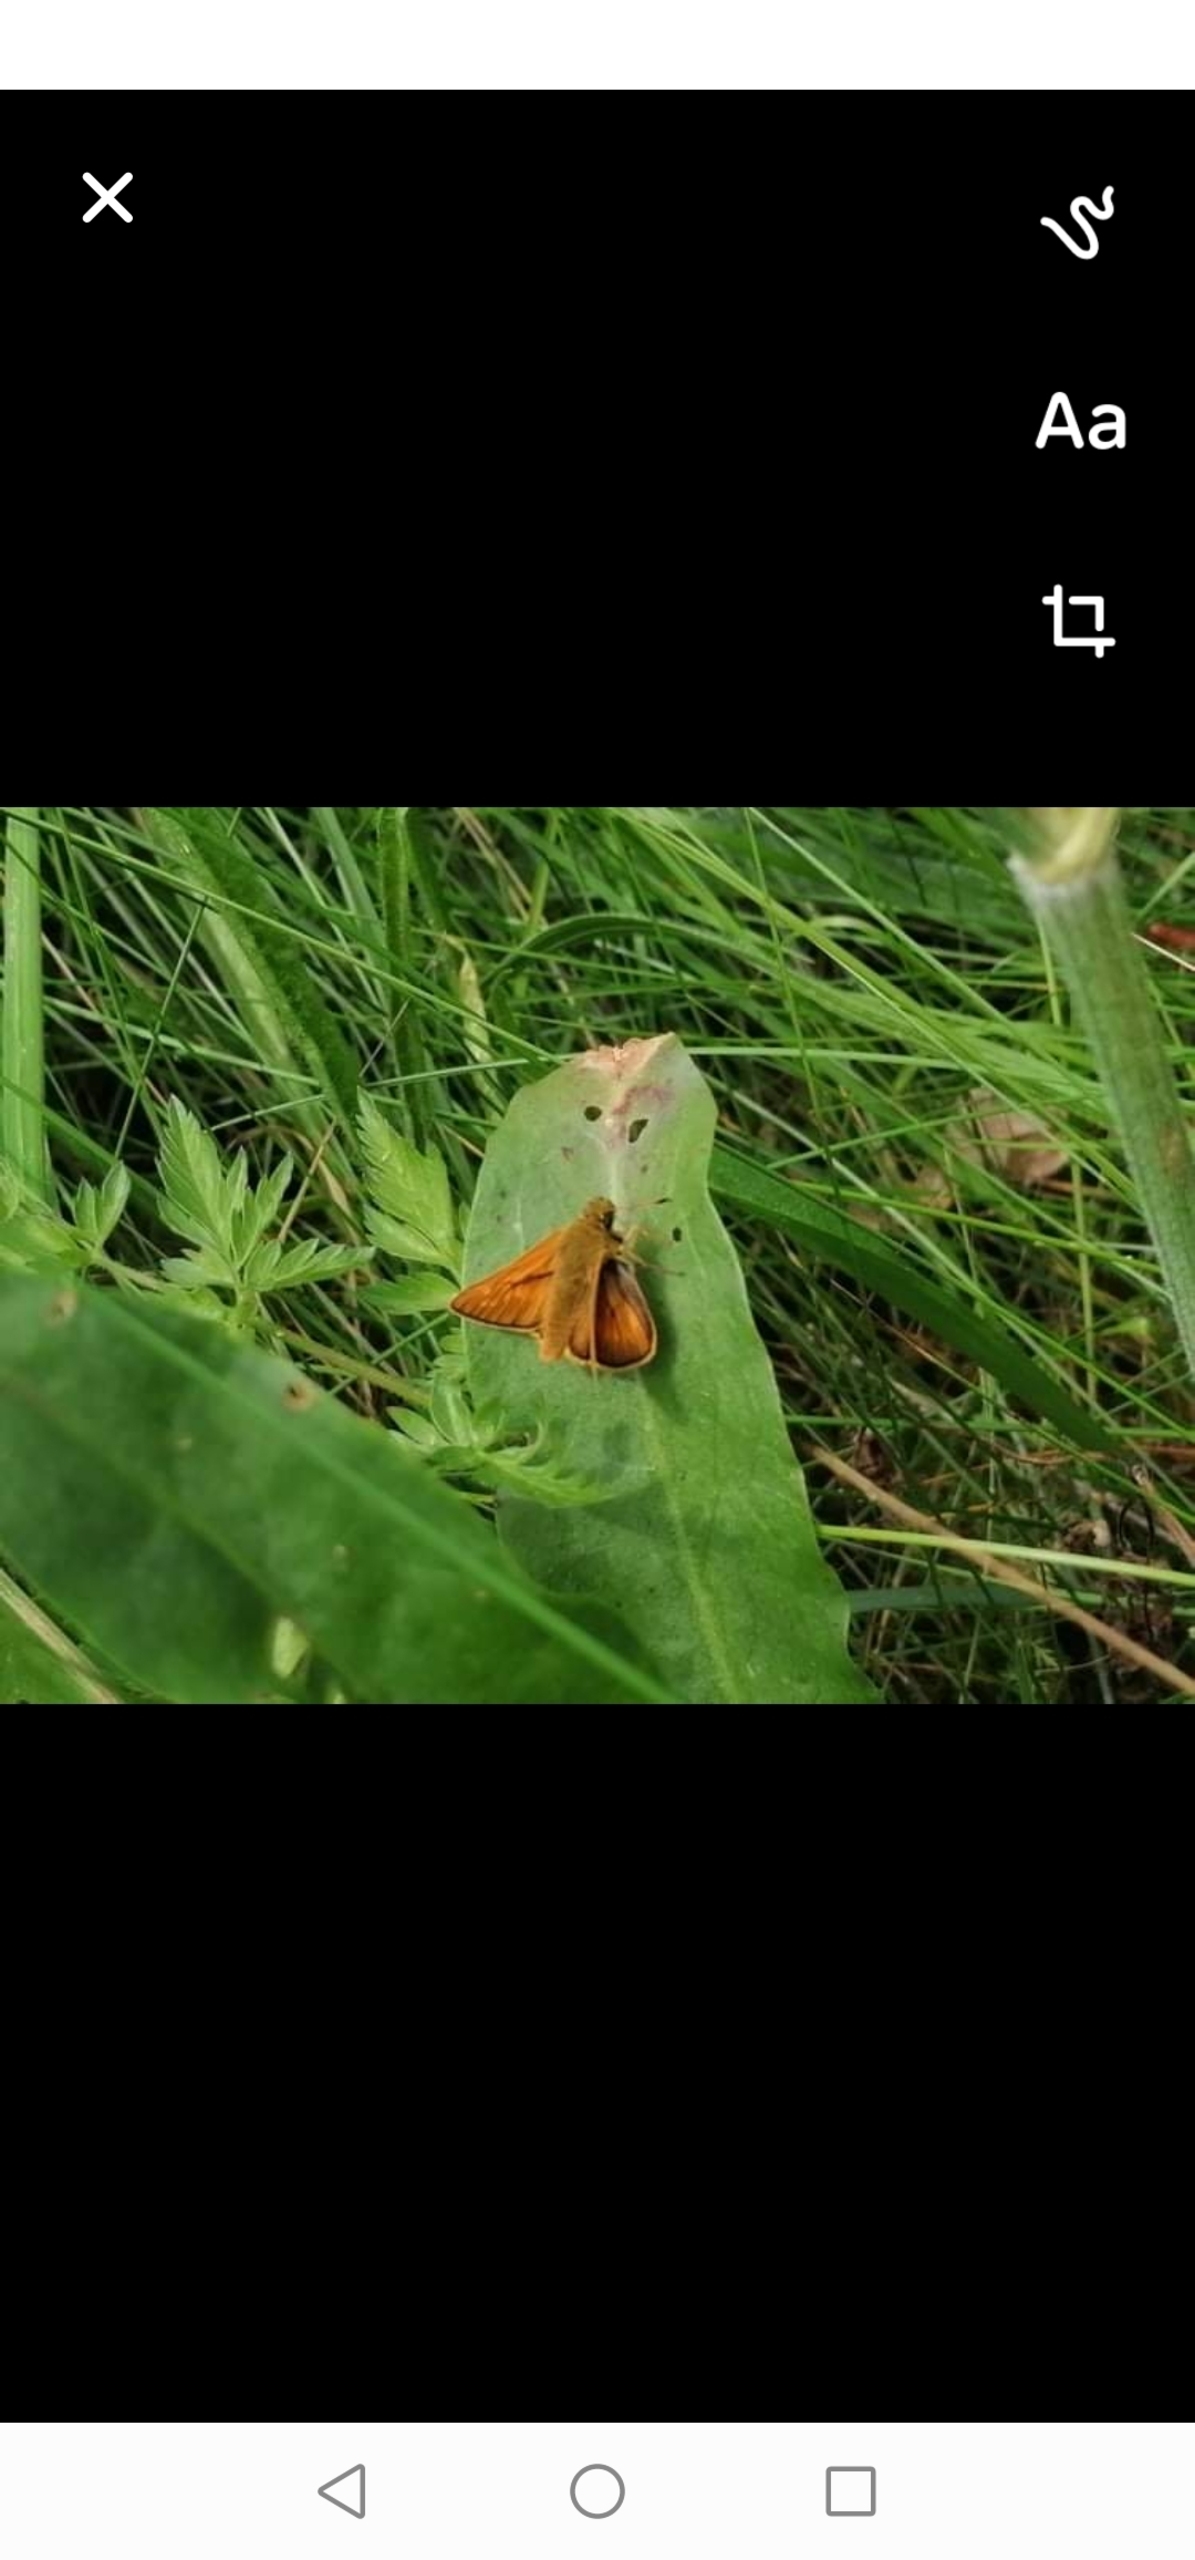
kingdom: Animalia
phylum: Arthropoda
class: Insecta
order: Lepidoptera
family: Hesperiidae
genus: Ochlodes
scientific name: Ochlodes venata
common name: Stor bredpande
